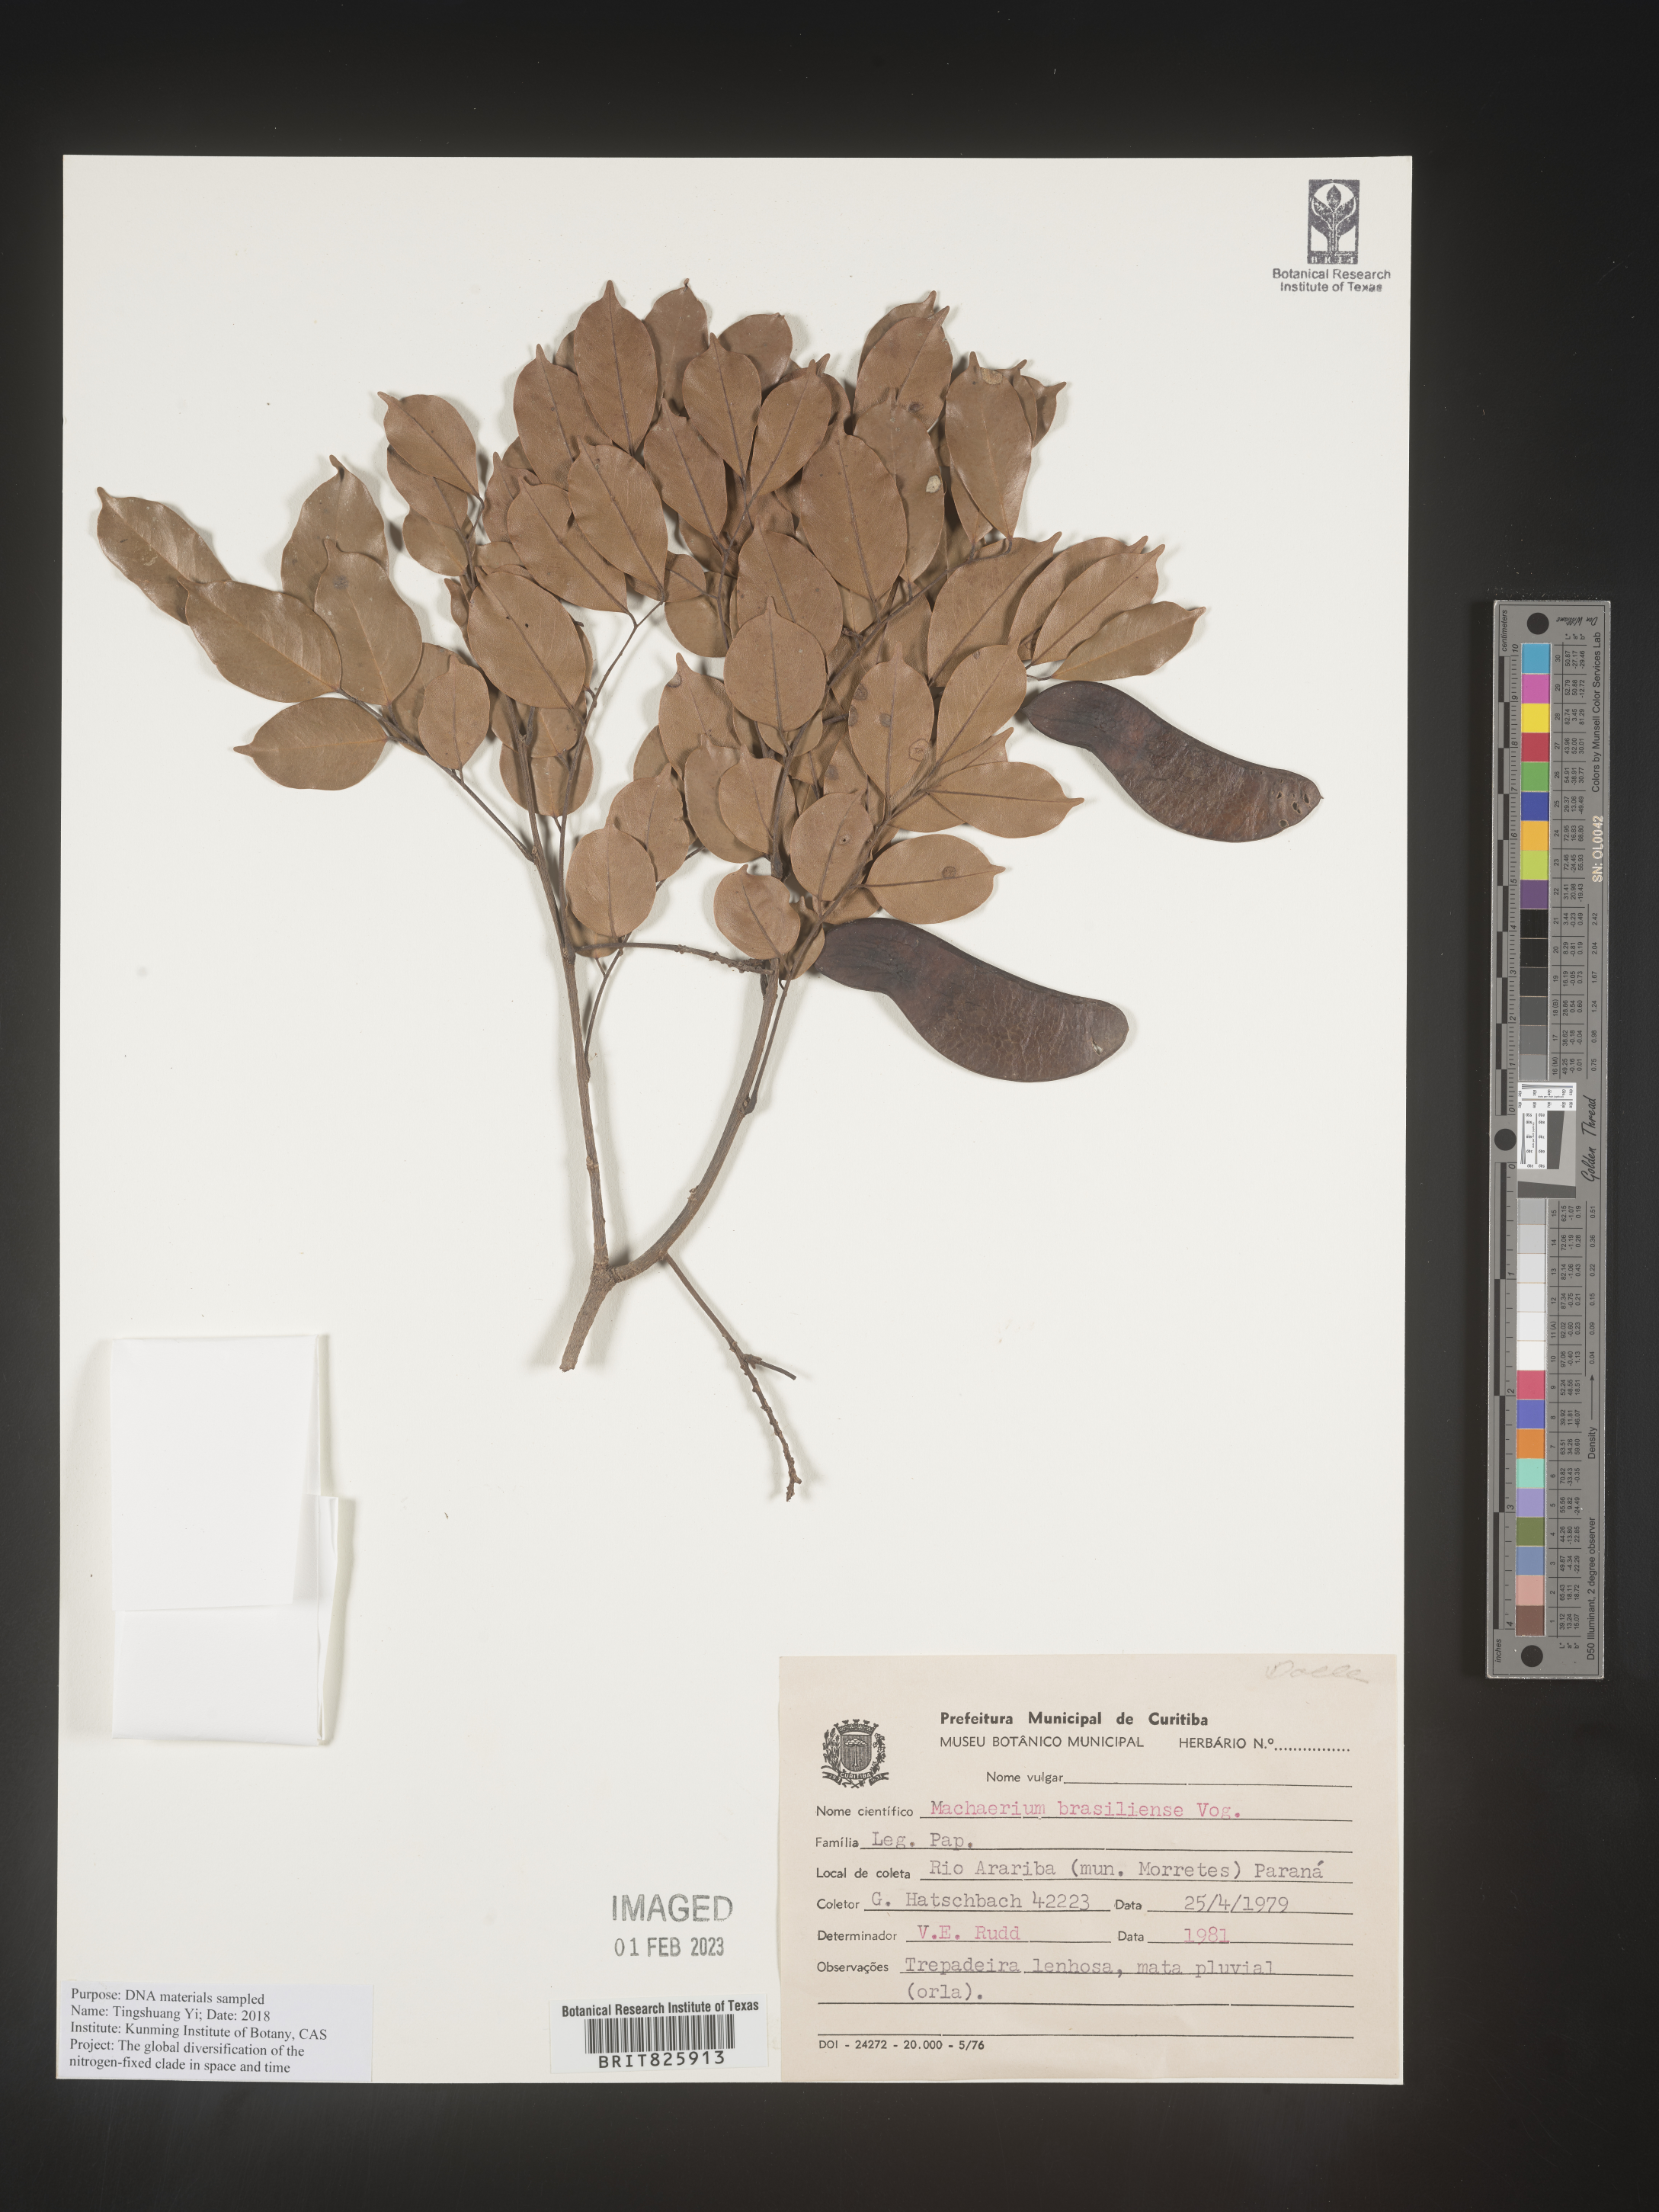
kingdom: Plantae
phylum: Tracheophyta
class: Magnoliopsida
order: Fabales
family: Fabaceae
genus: Machaerium
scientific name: Machaerium
